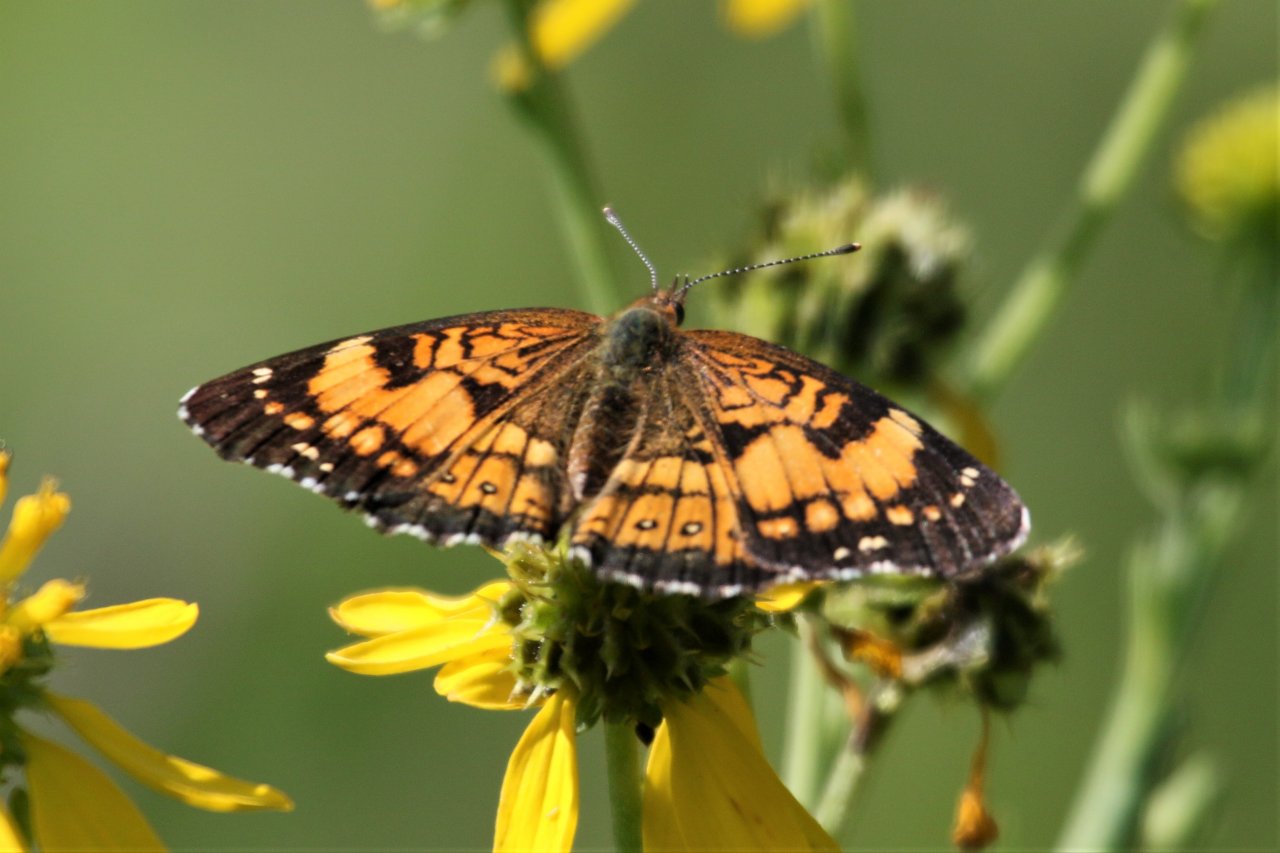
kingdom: Animalia
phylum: Arthropoda
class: Insecta
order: Lepidoptera
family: Nymphalidae
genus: Chlosyne
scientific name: Chlosyne nycteis
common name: Silvery Checkerspot
